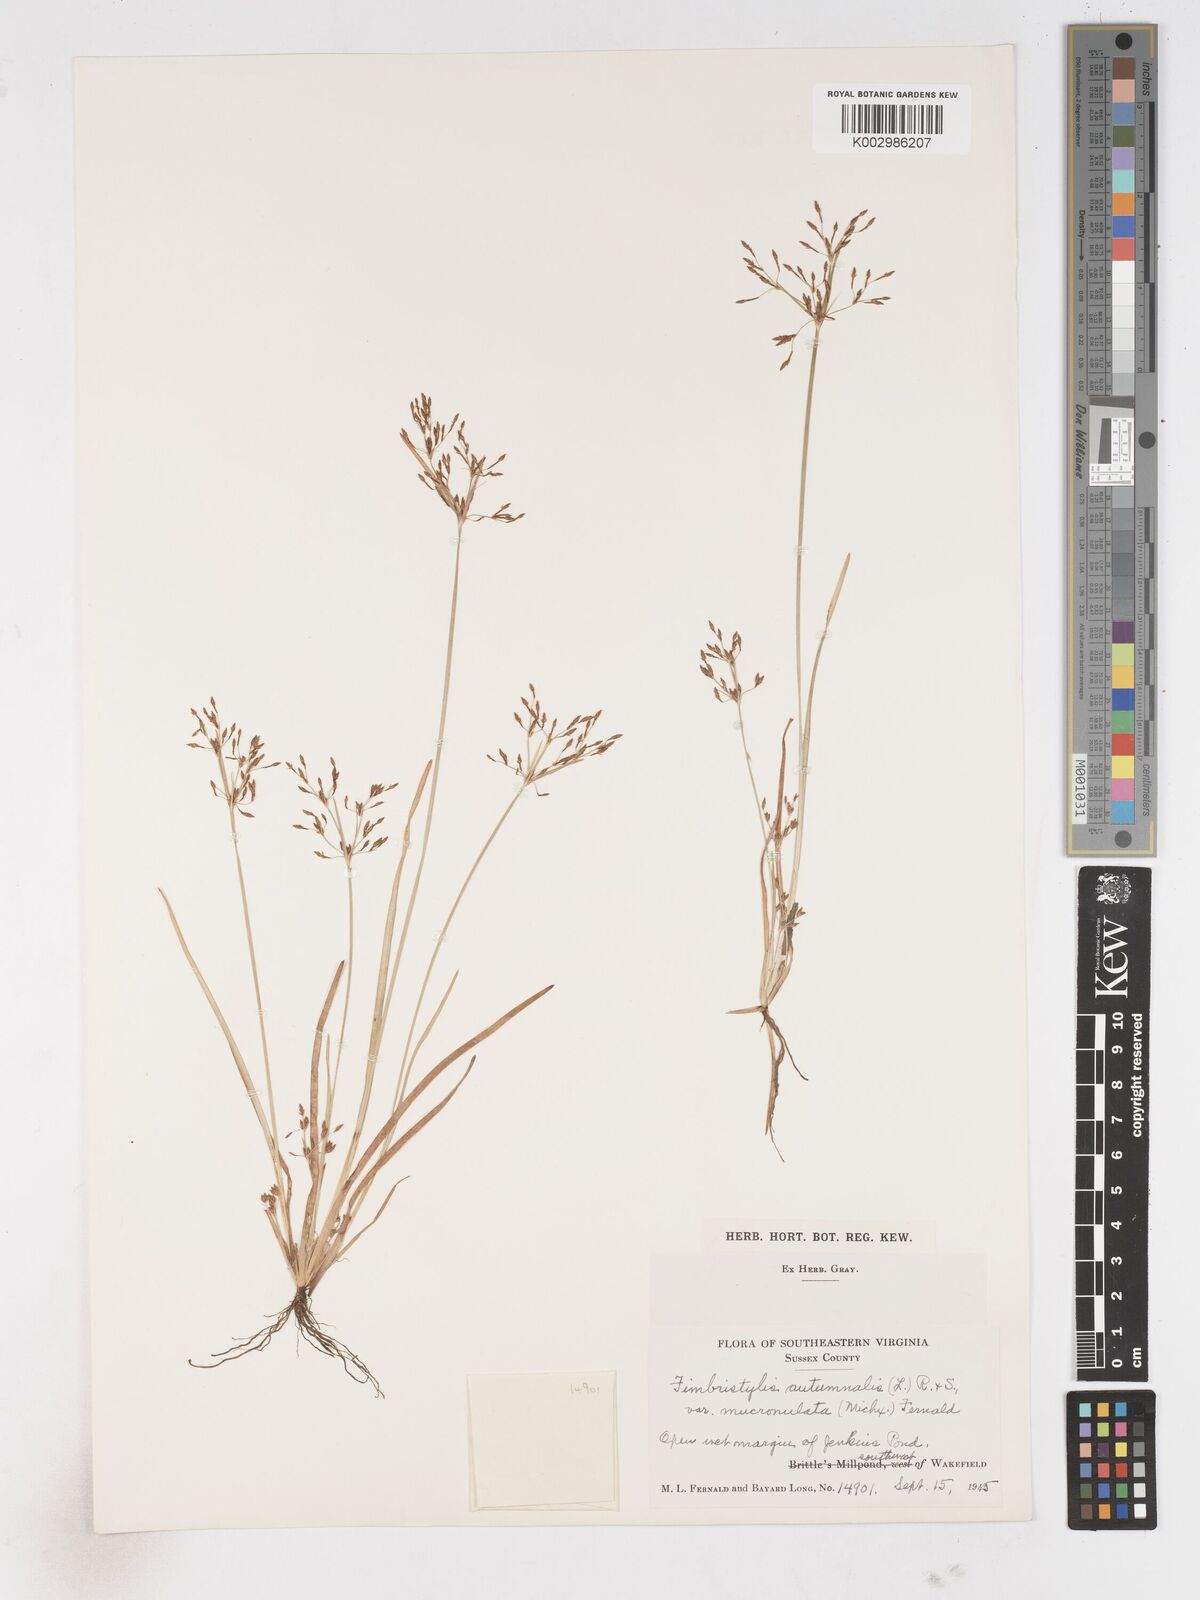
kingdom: Plantae
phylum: Tracheophyta
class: Liliopsida
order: Poales
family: Cyperaceae
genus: Fimbristylis
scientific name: Fimbristylis autumnalis
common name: Slender fimbristylis
